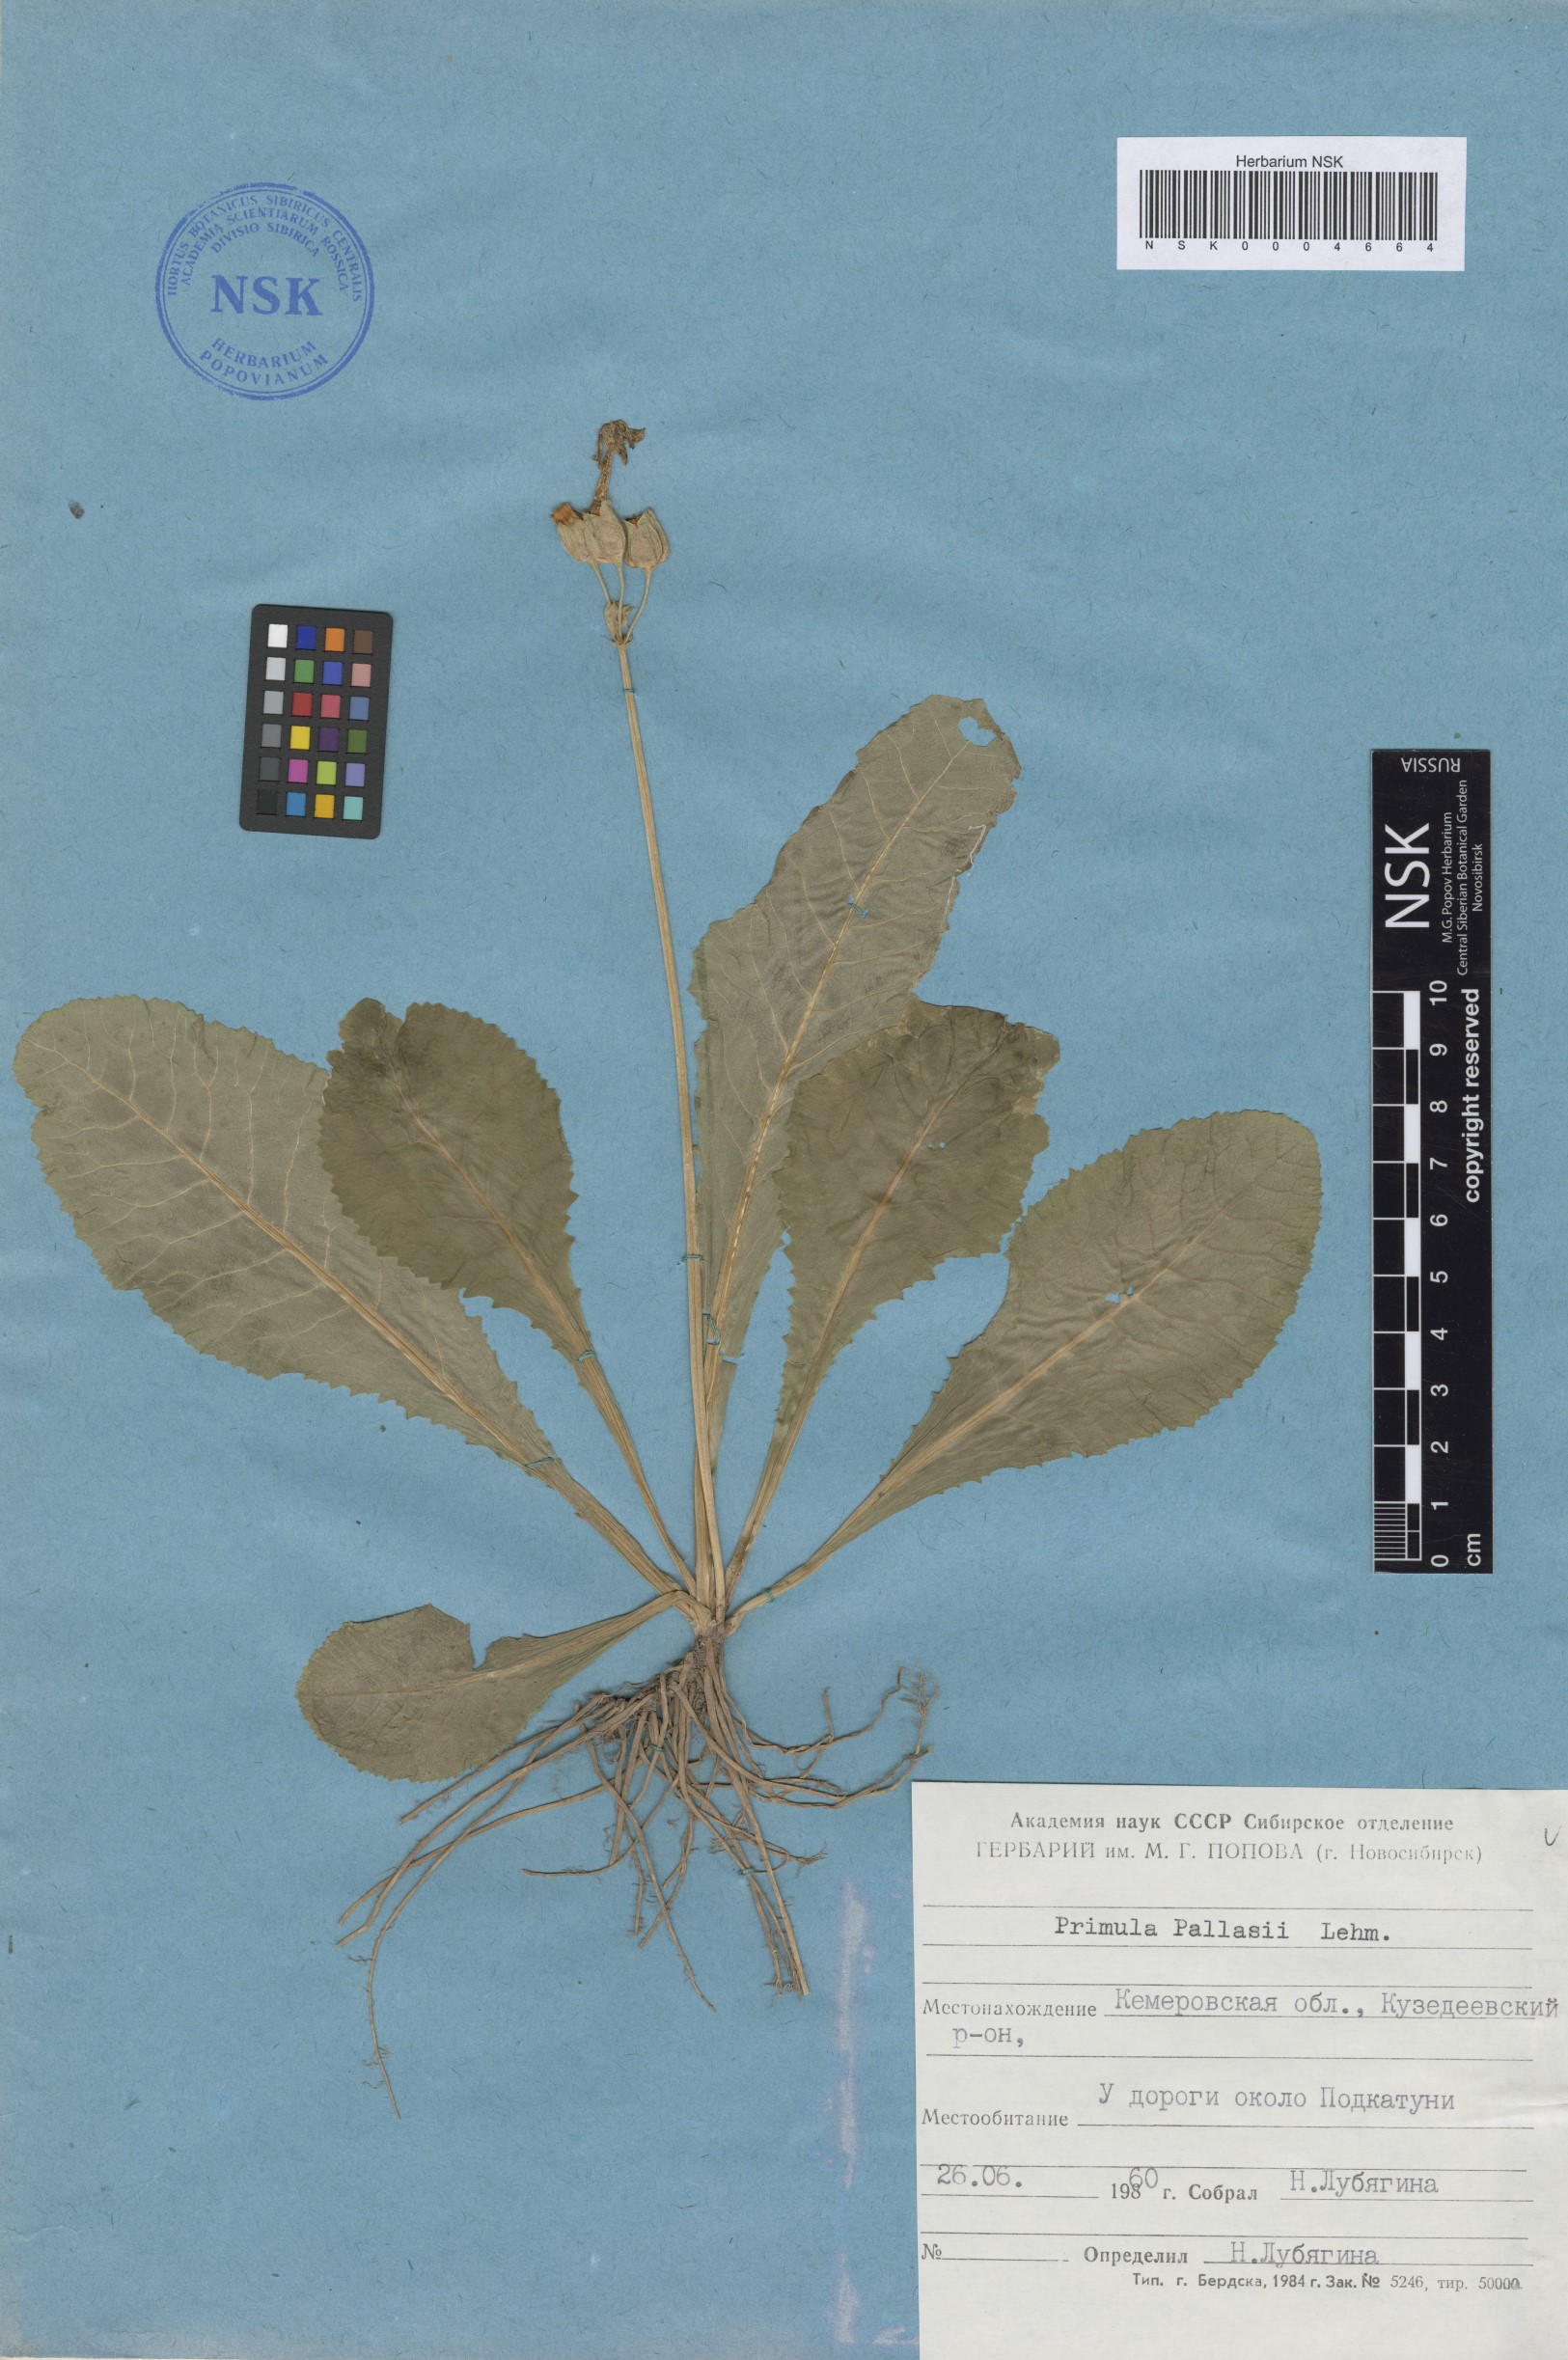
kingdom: Plantae
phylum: Tracheophyta
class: Magnoliopsida
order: Ericales
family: Primulaceae
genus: Primula
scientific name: Primula elatior
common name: Oxlip
